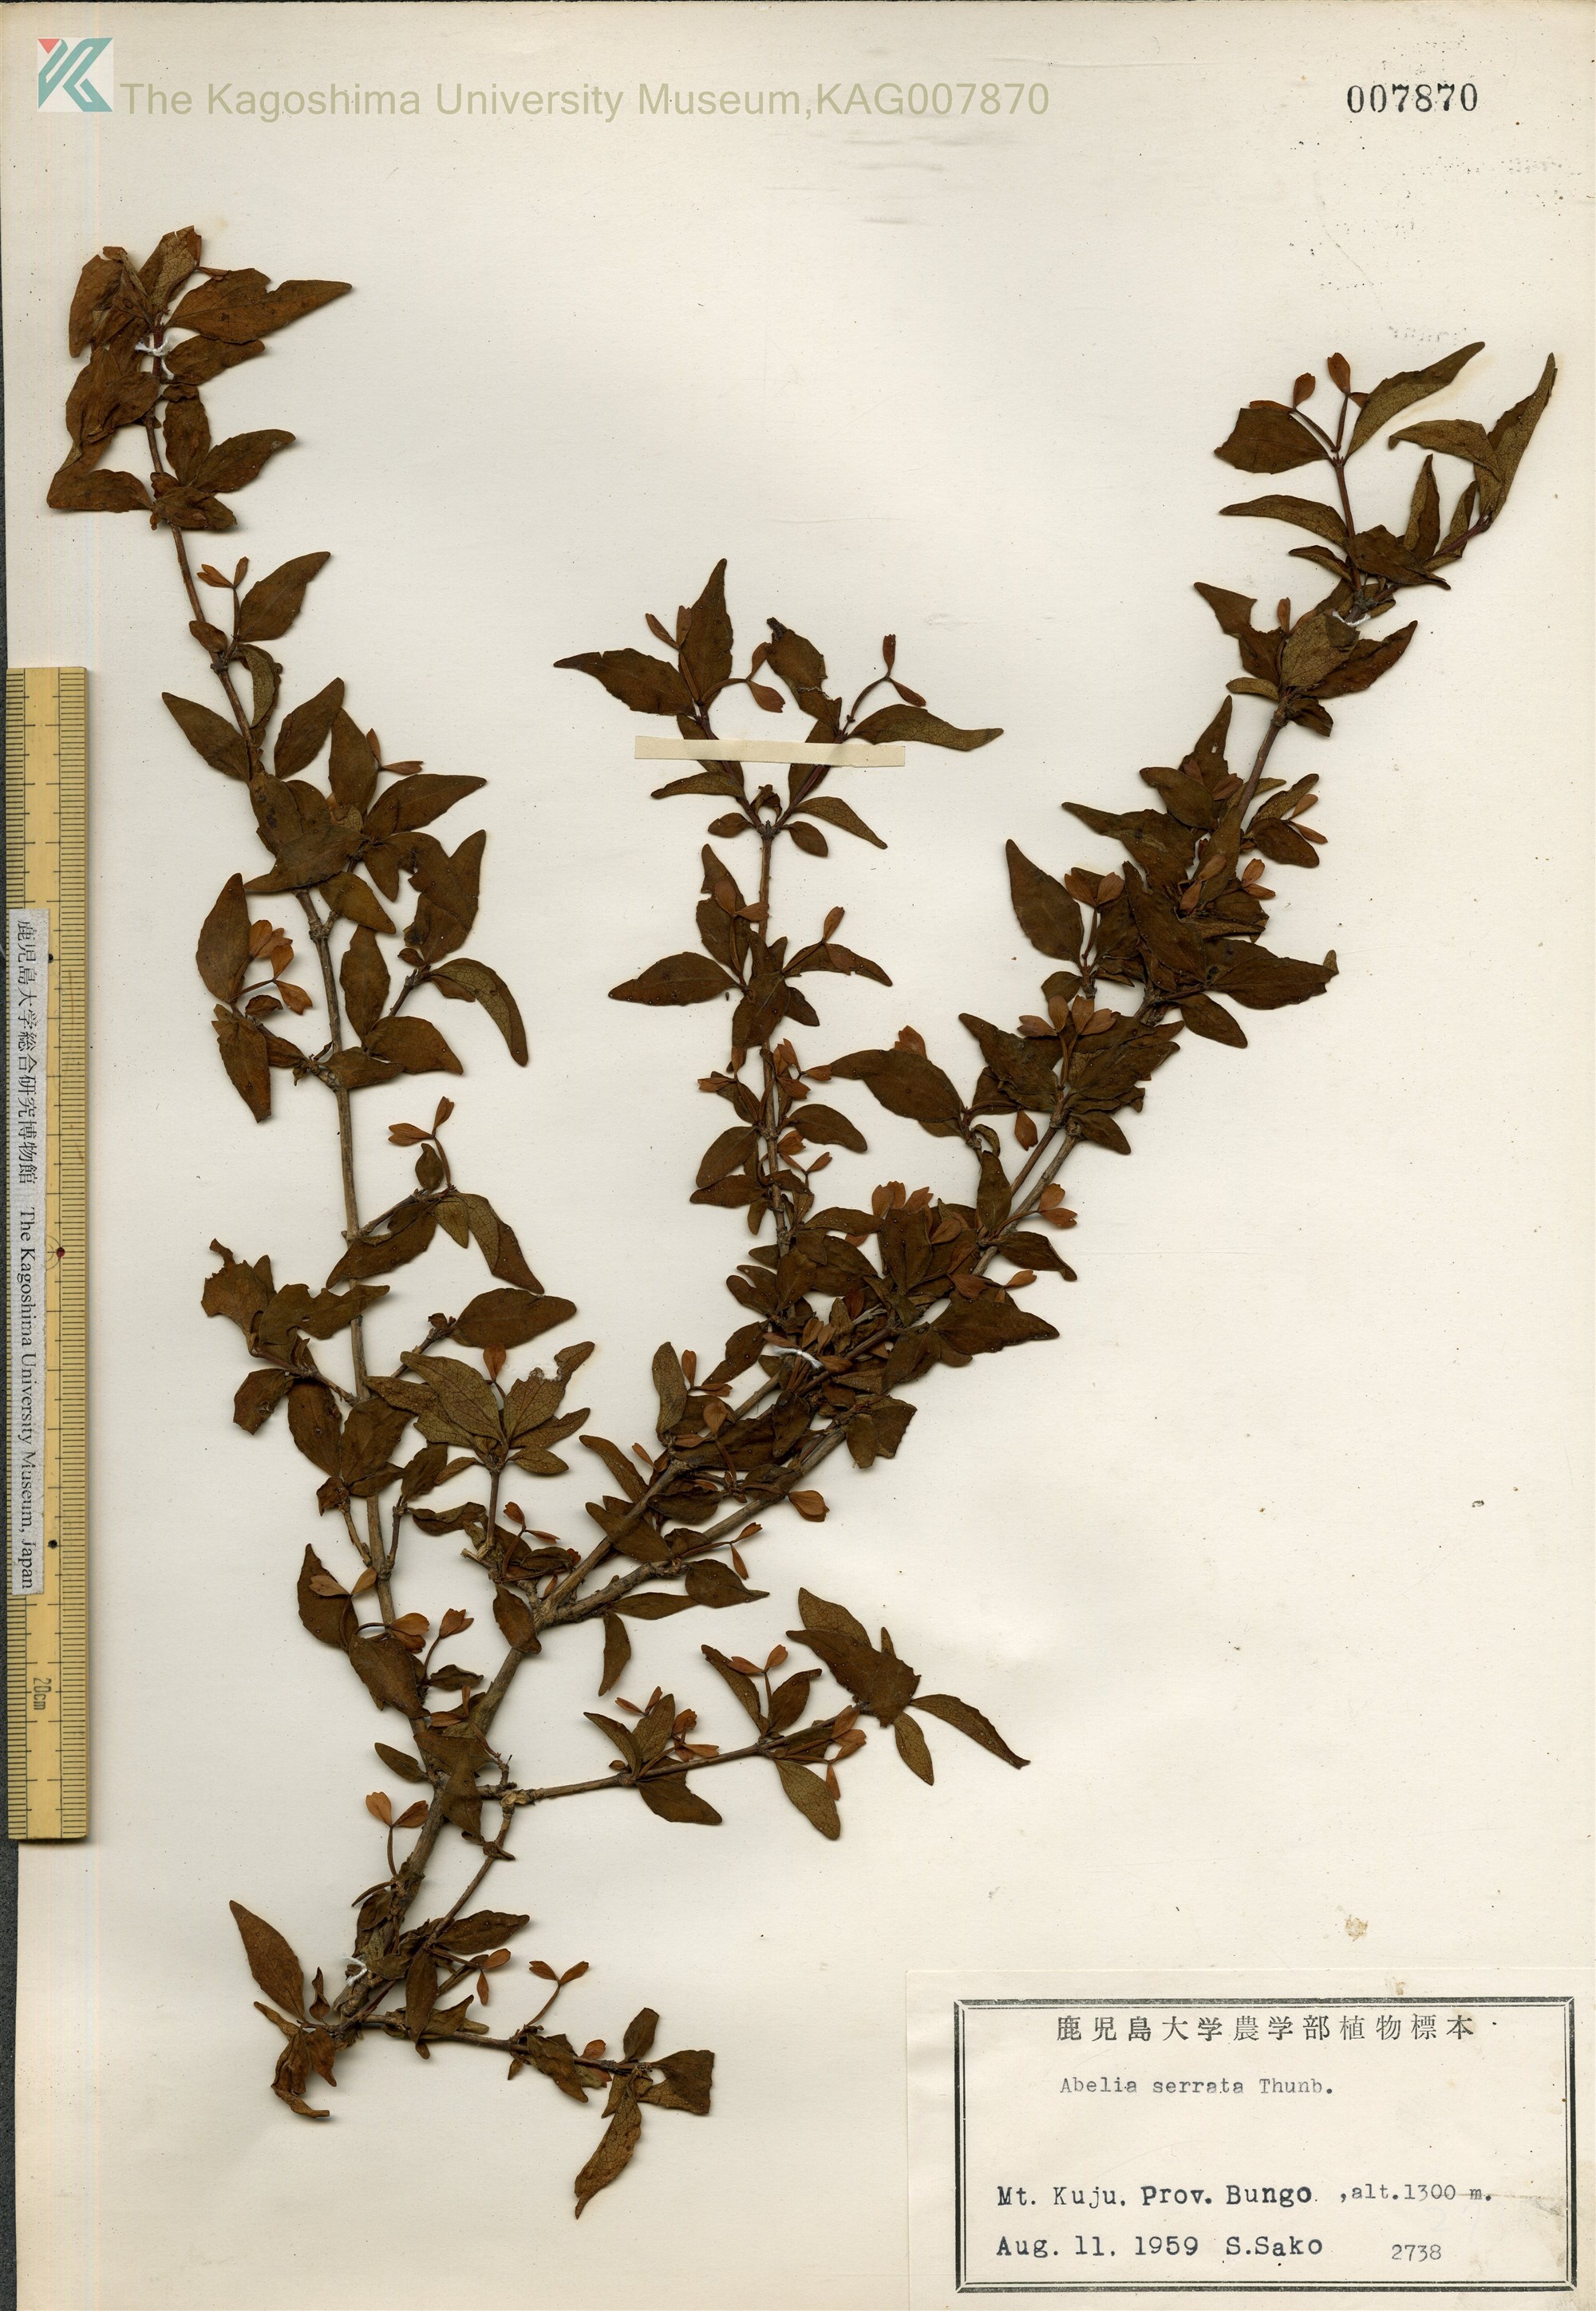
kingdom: Plantae
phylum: Tracheophyta
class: Magnoliopsida
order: Dipsacales
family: Caprifoliaceae
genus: Diabelia
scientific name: Diabelia serrata
